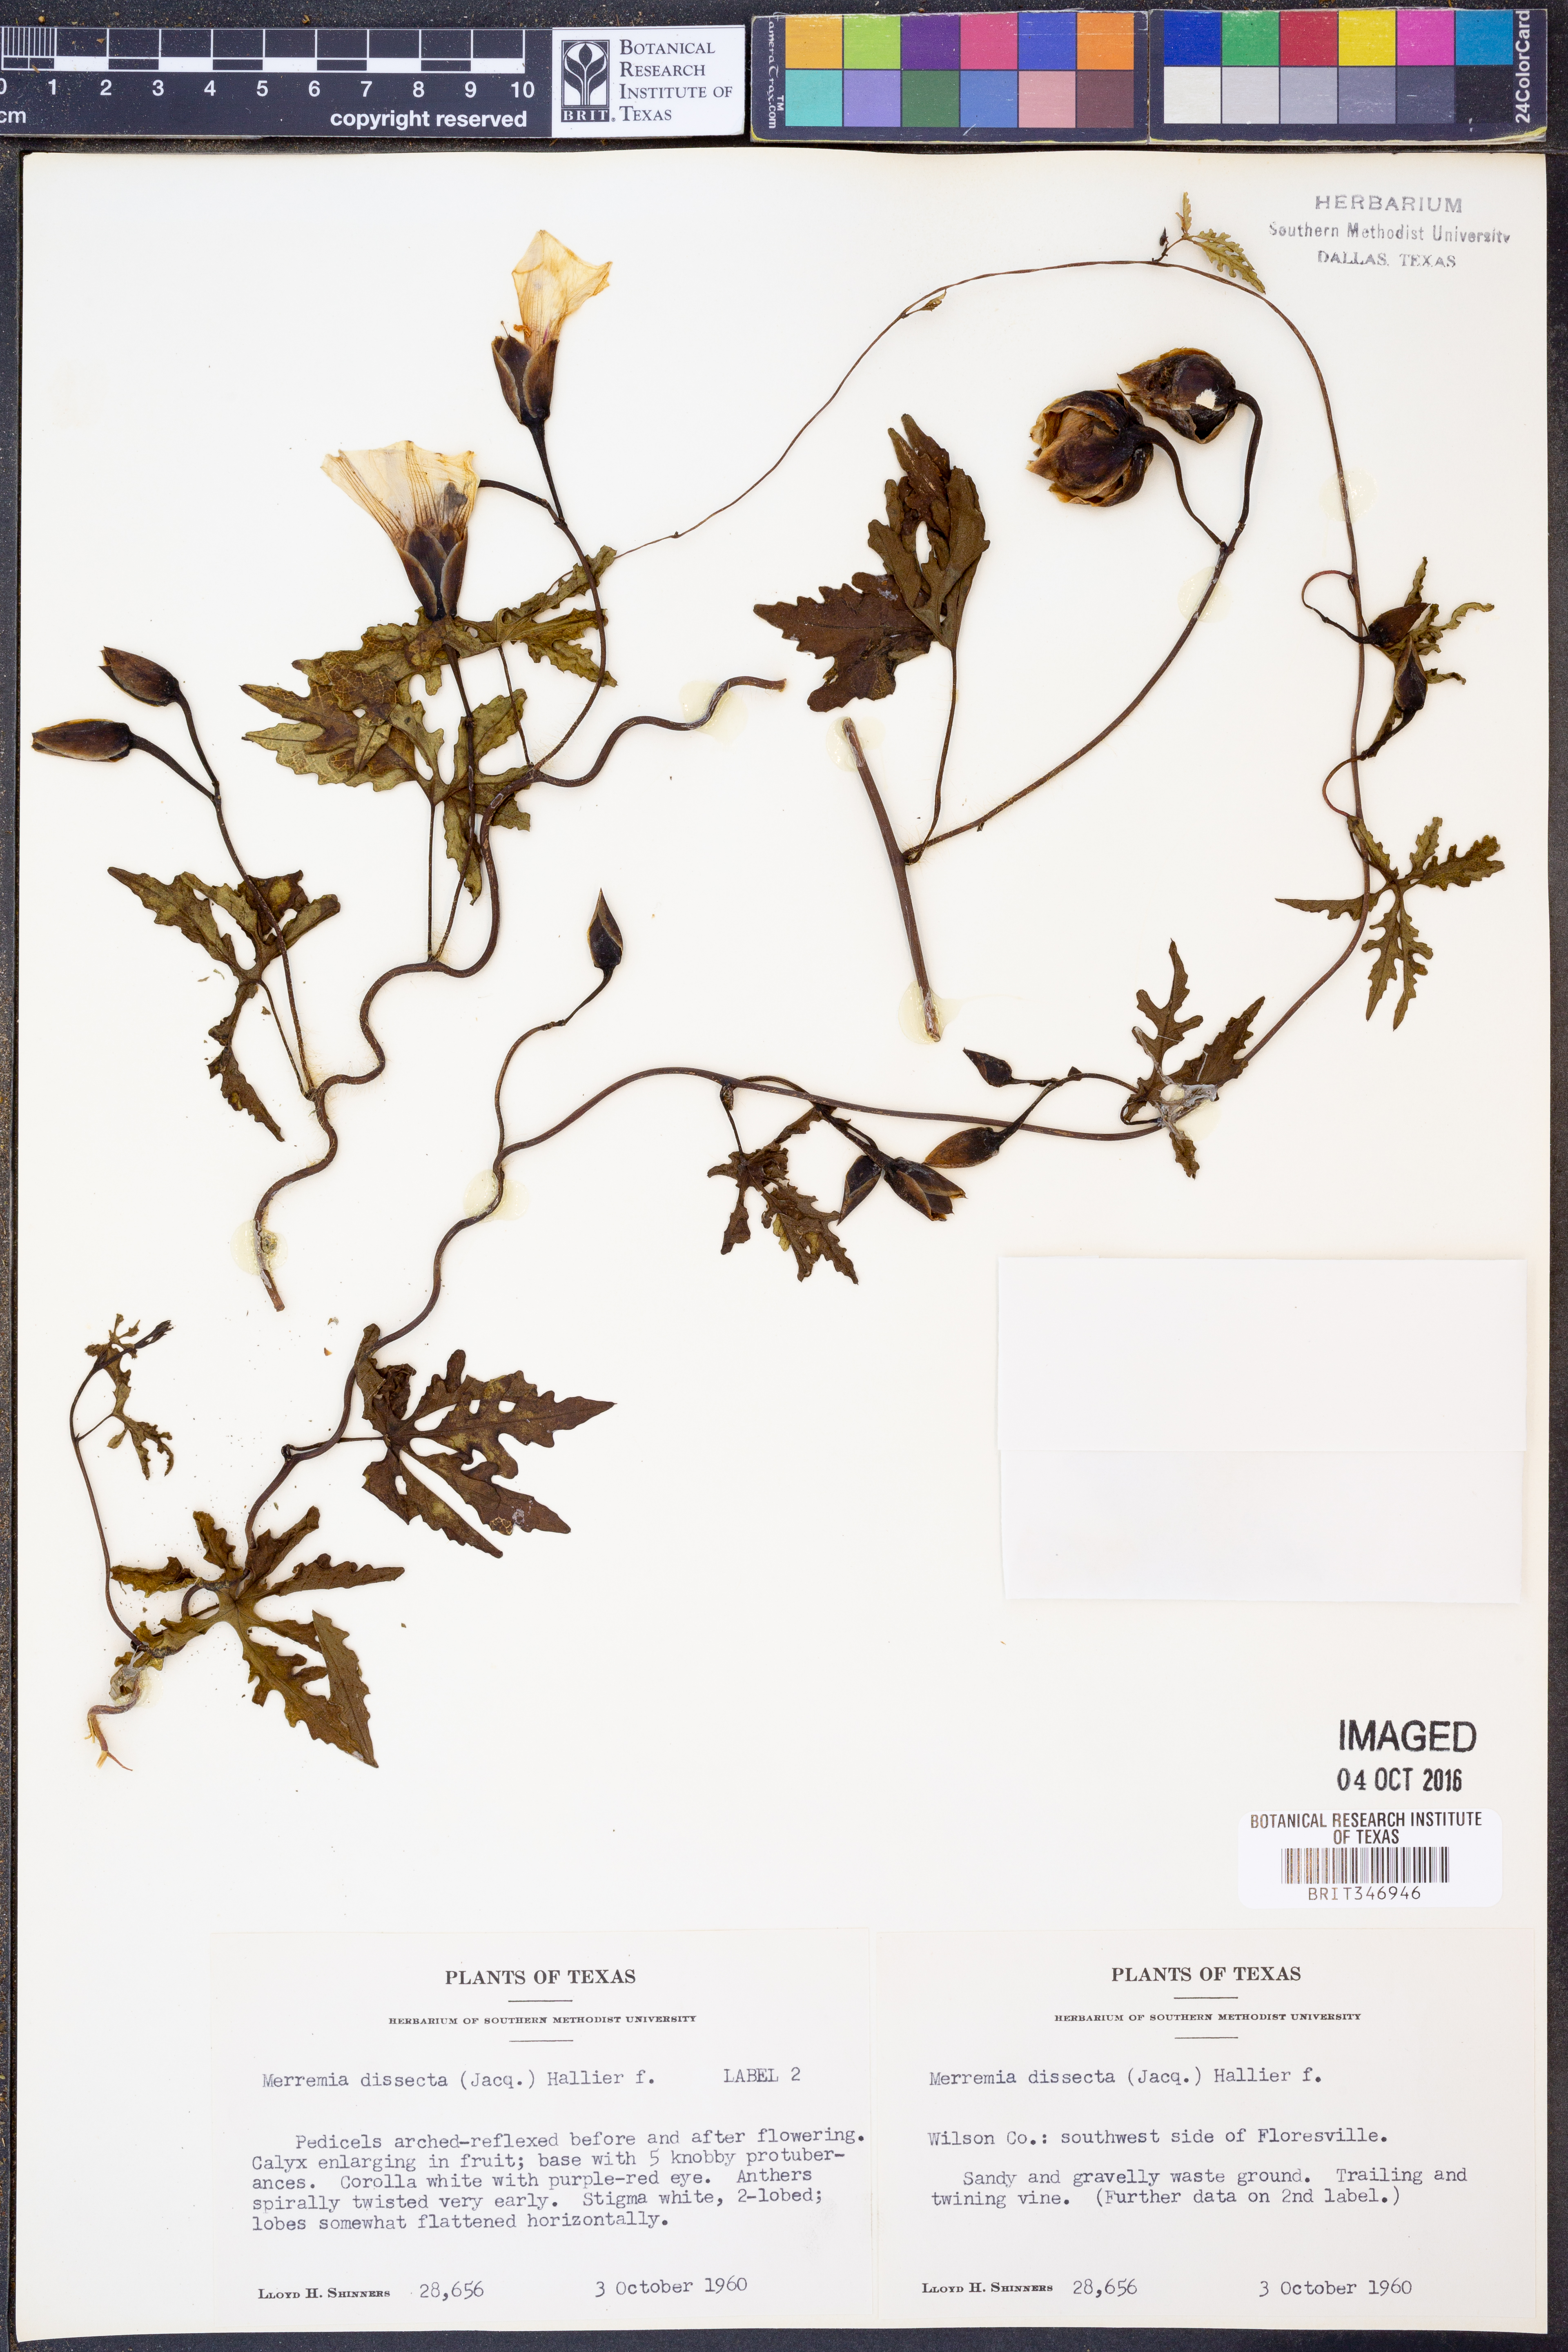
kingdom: Plantae
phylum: Tracheophyta
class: Magnoliopsida
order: Solanales
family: Convolvulaceae
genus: Distimake
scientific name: Distimake dissectus
